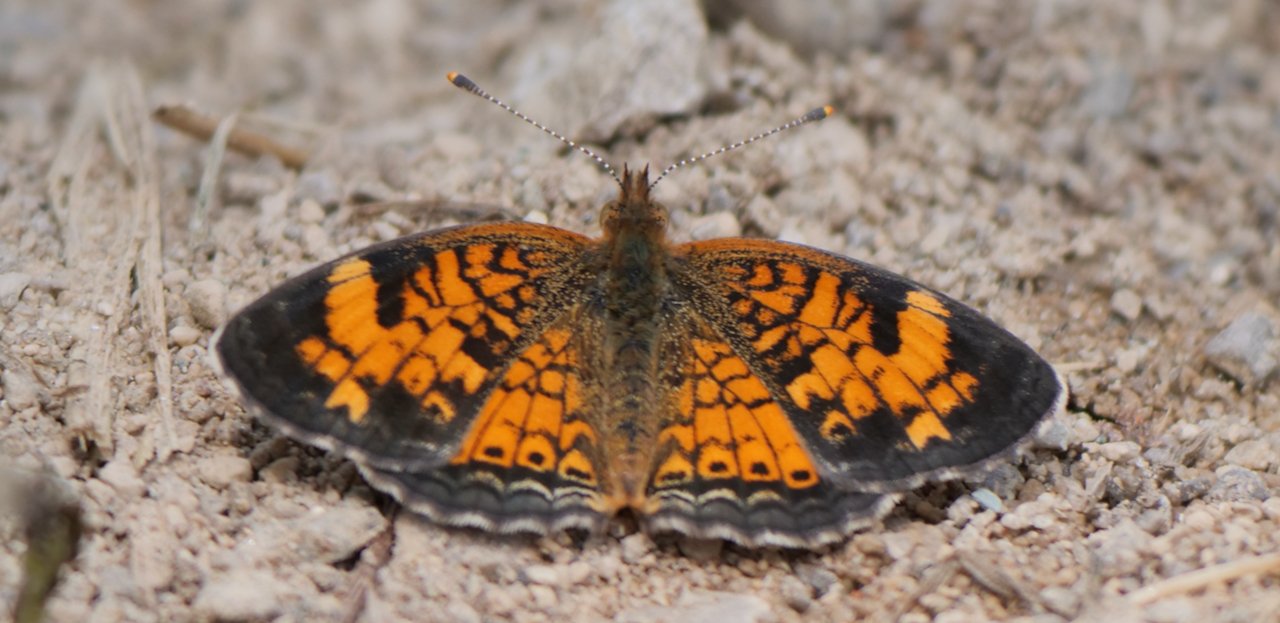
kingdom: Animalia
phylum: Arthropoda
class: Insecta
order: Lepidoptera
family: Nymphalidae
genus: Phyciodes
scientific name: Phyciodes
